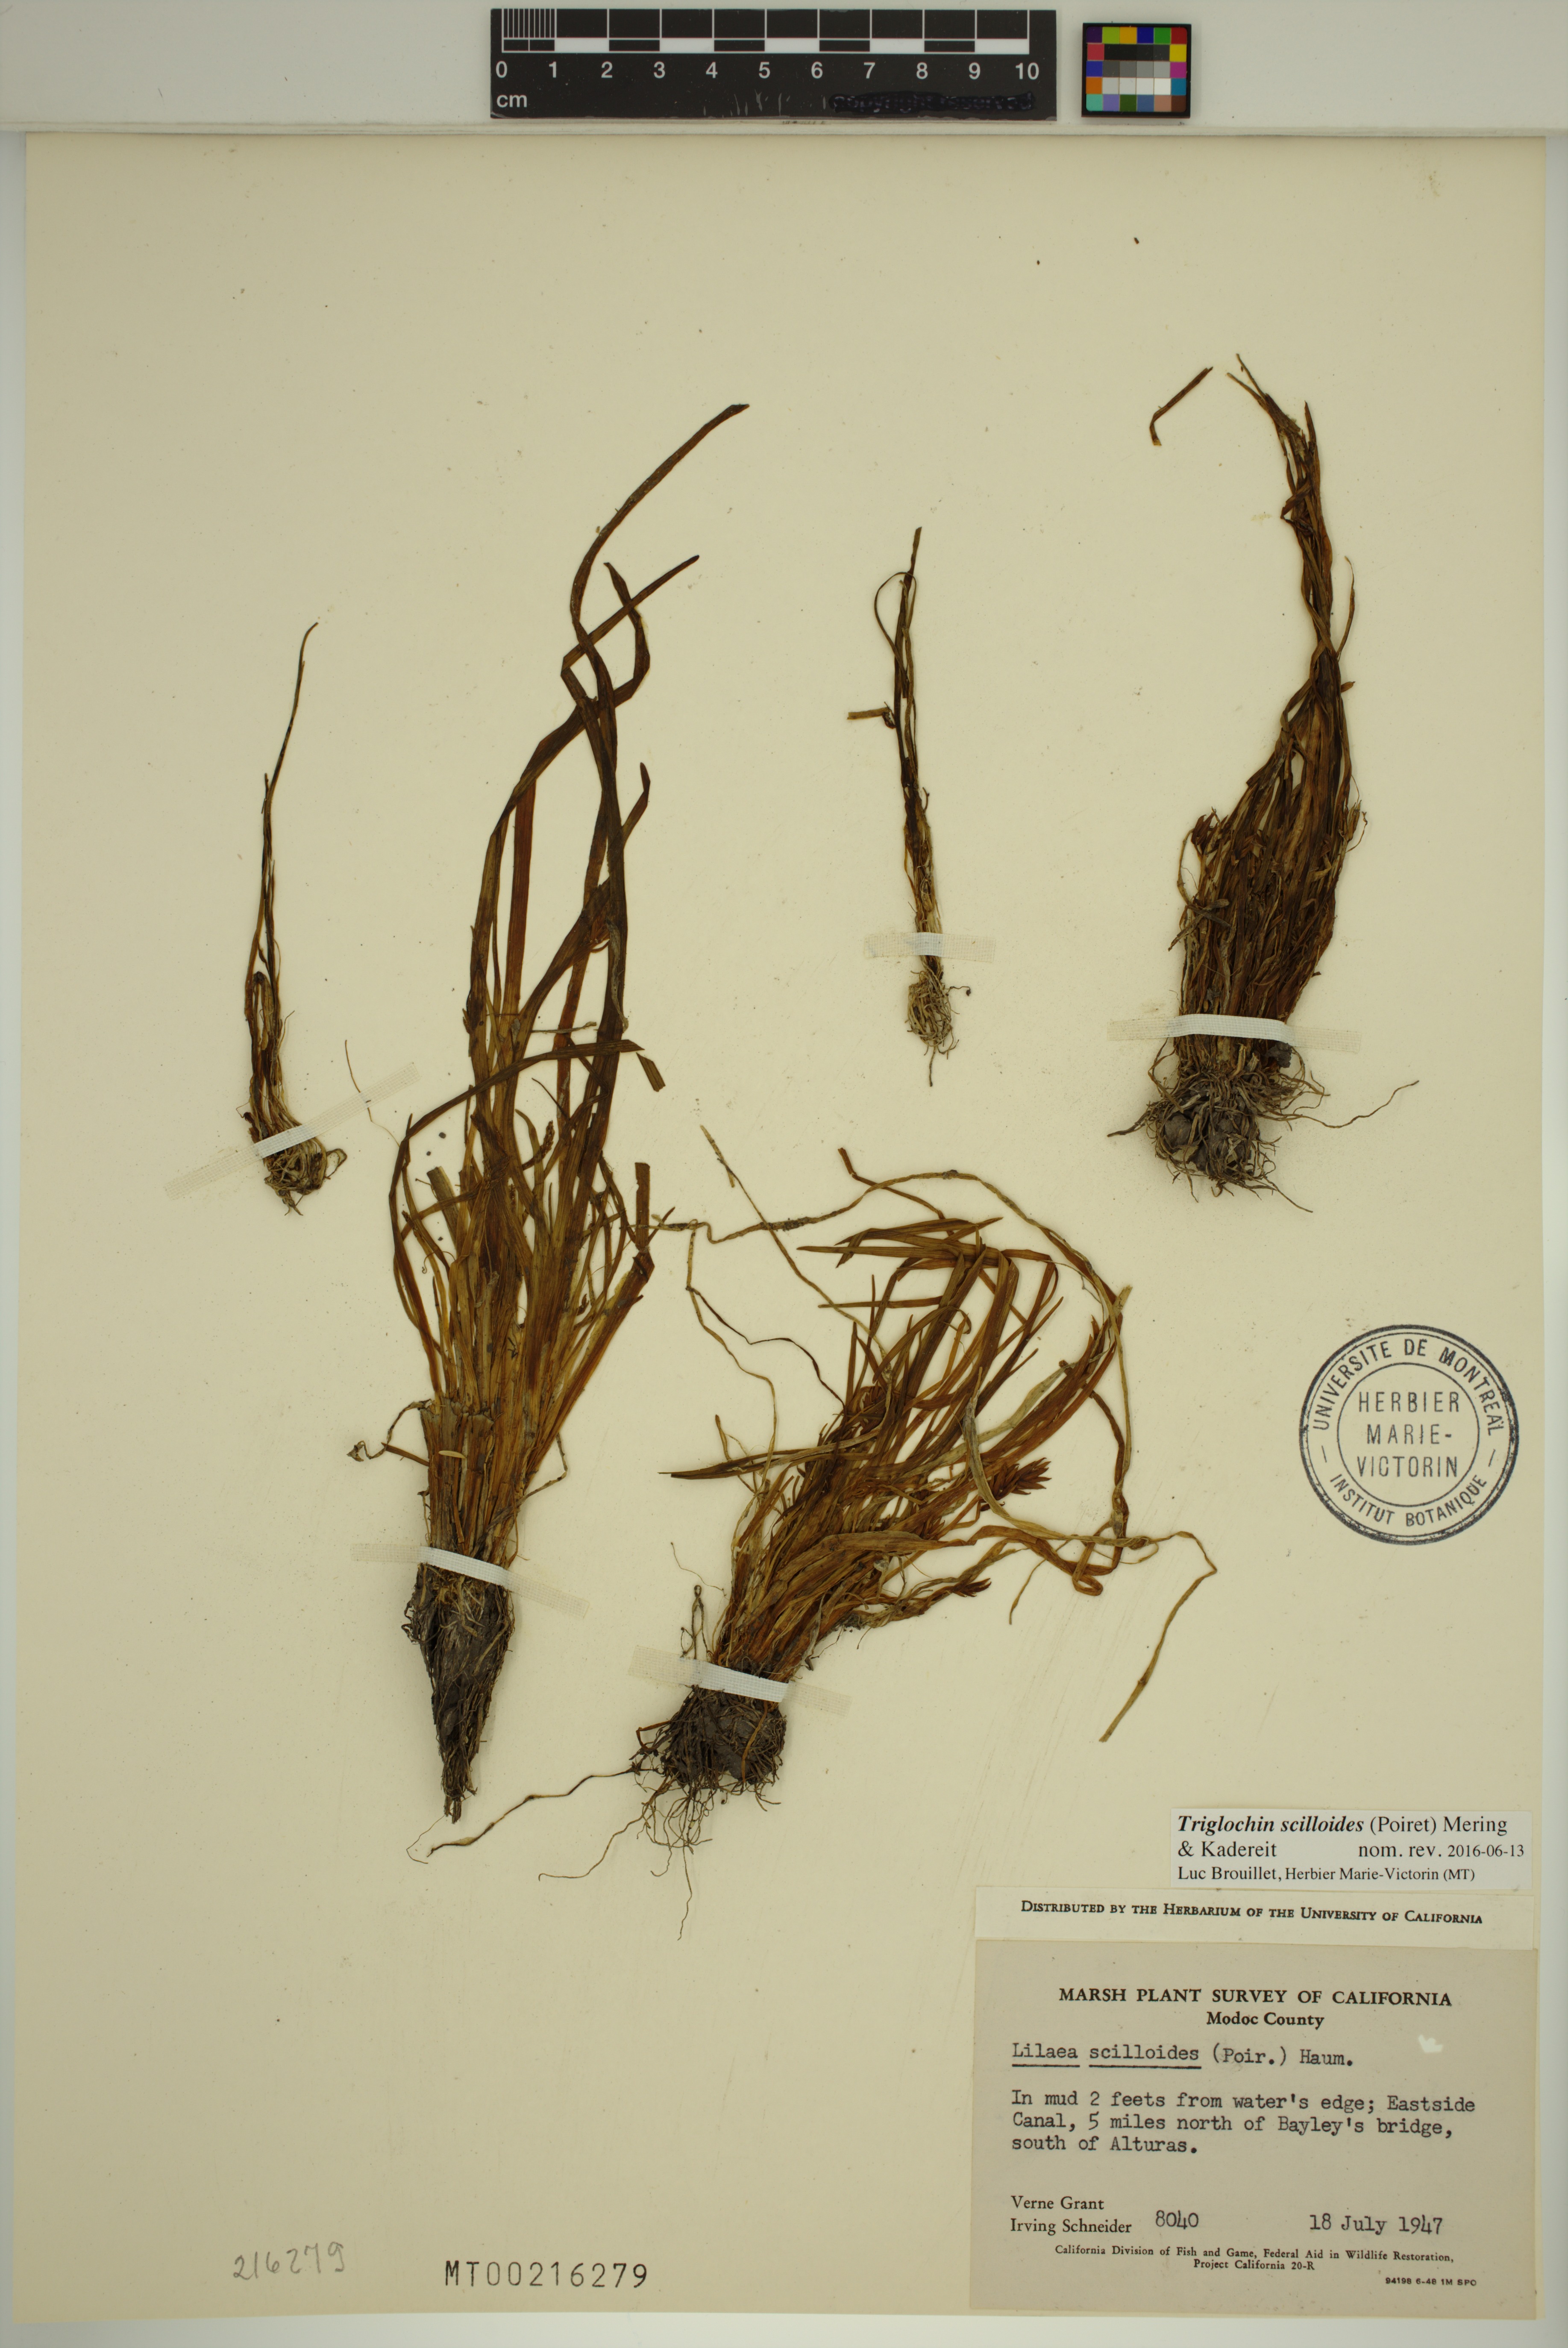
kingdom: Plantae
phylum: Tracheophyta
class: Liliopsida
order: Alismatales
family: Juncaginaceae
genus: Triglochin
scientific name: Triglochin scilloides
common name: Awl-leaved lilaea
